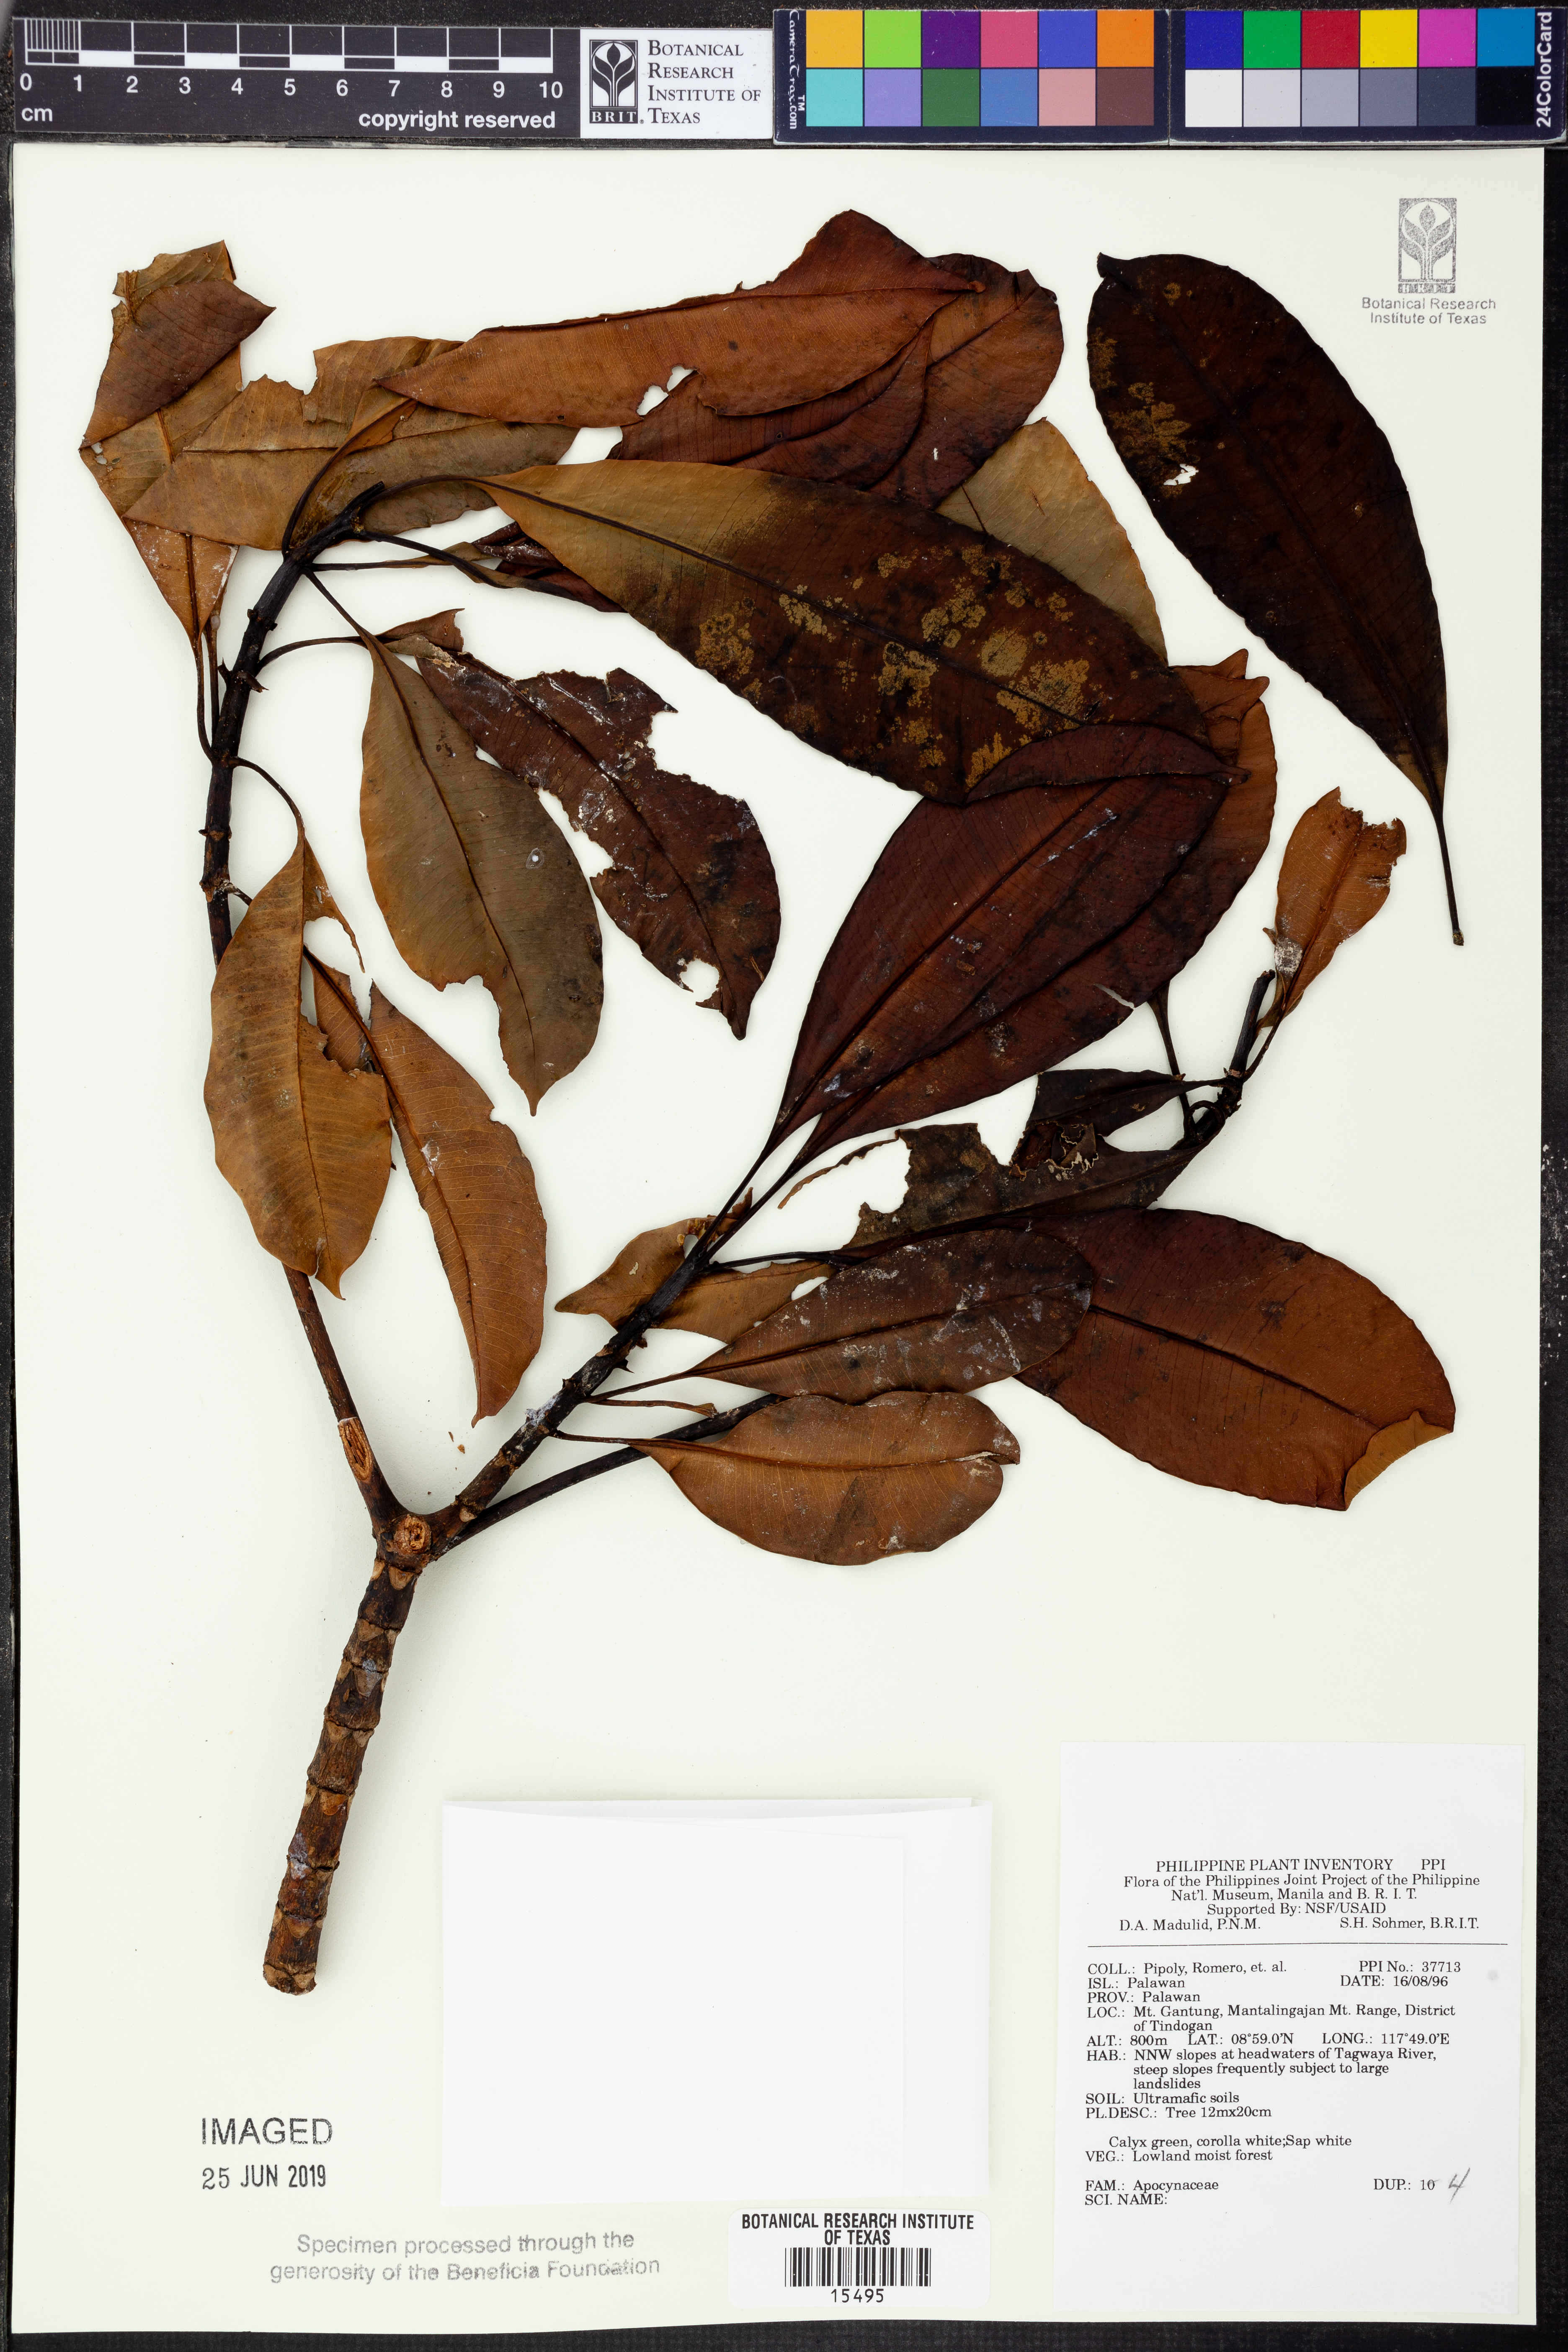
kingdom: Plantae
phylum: Tracheophyta
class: Magnoliopsida
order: Gentianales
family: Apocynaceae
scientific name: Apocynaceae
